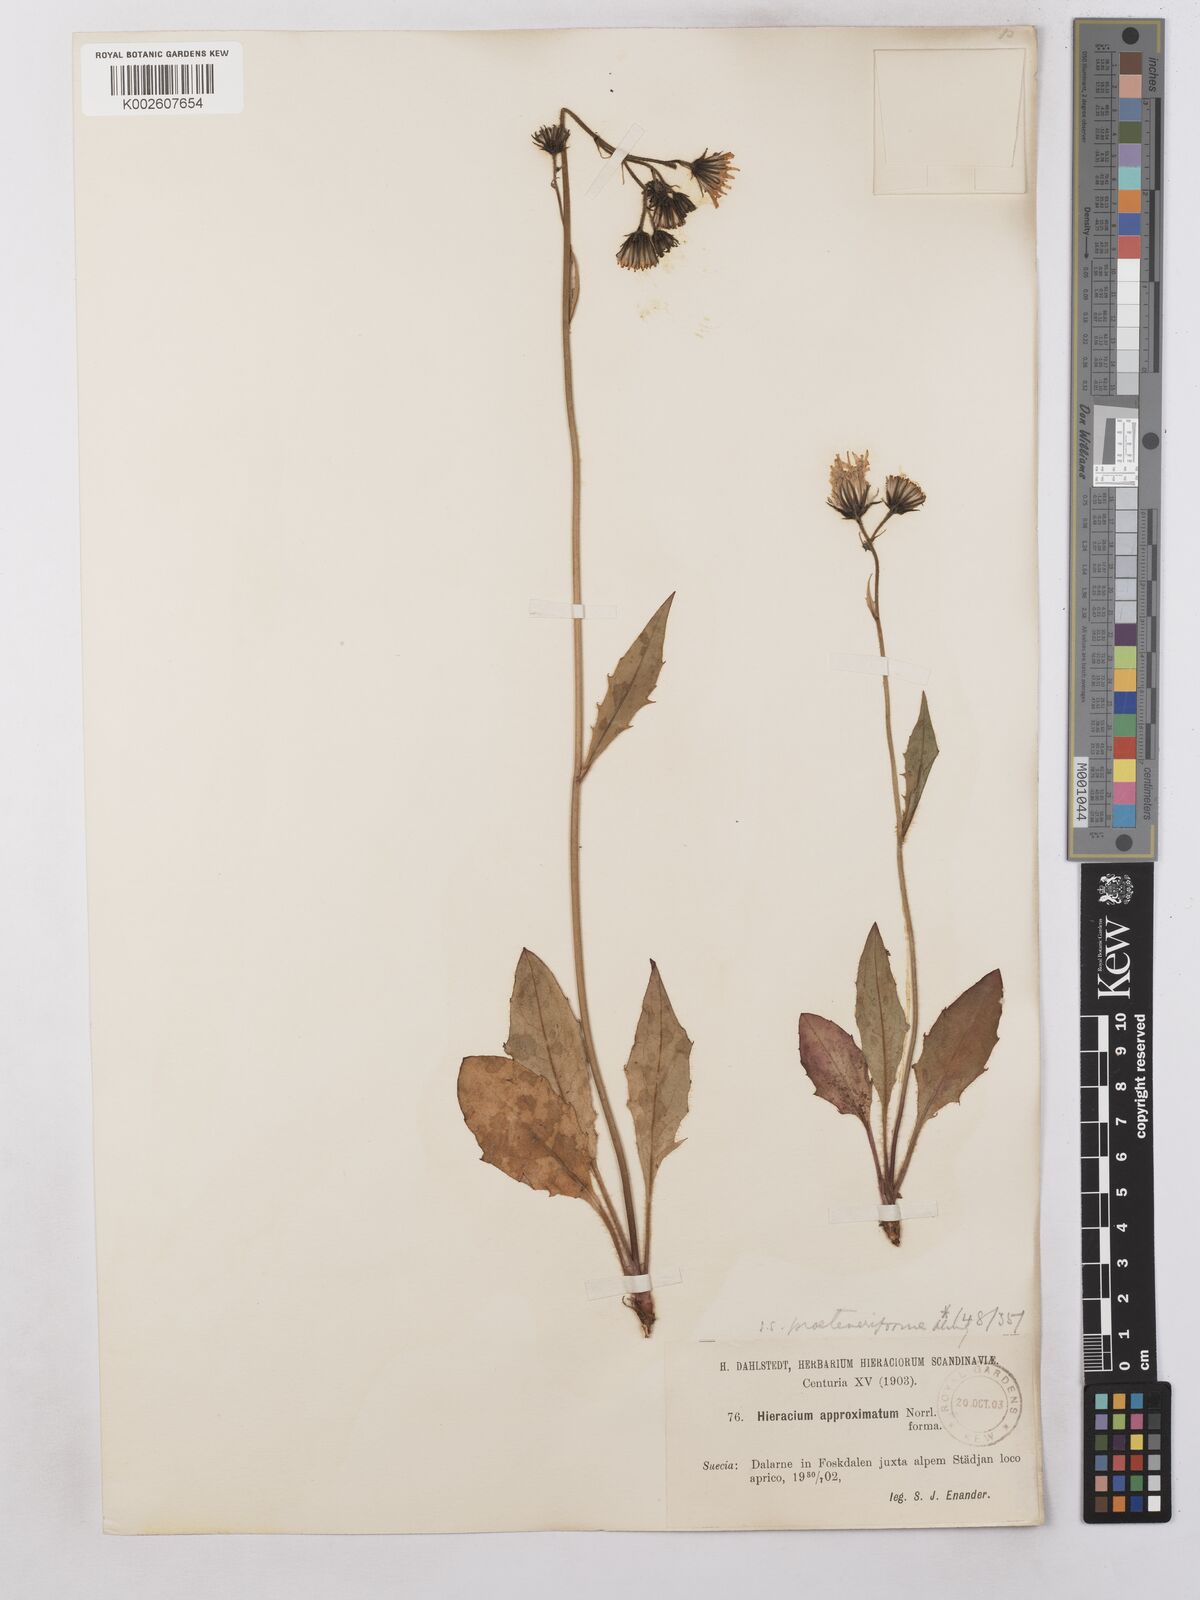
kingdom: Plantae
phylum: Tracheophyta
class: Magnoliopsida
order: Asterales
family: Asteraceae
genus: Hieracium
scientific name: Hieracium subramosum
